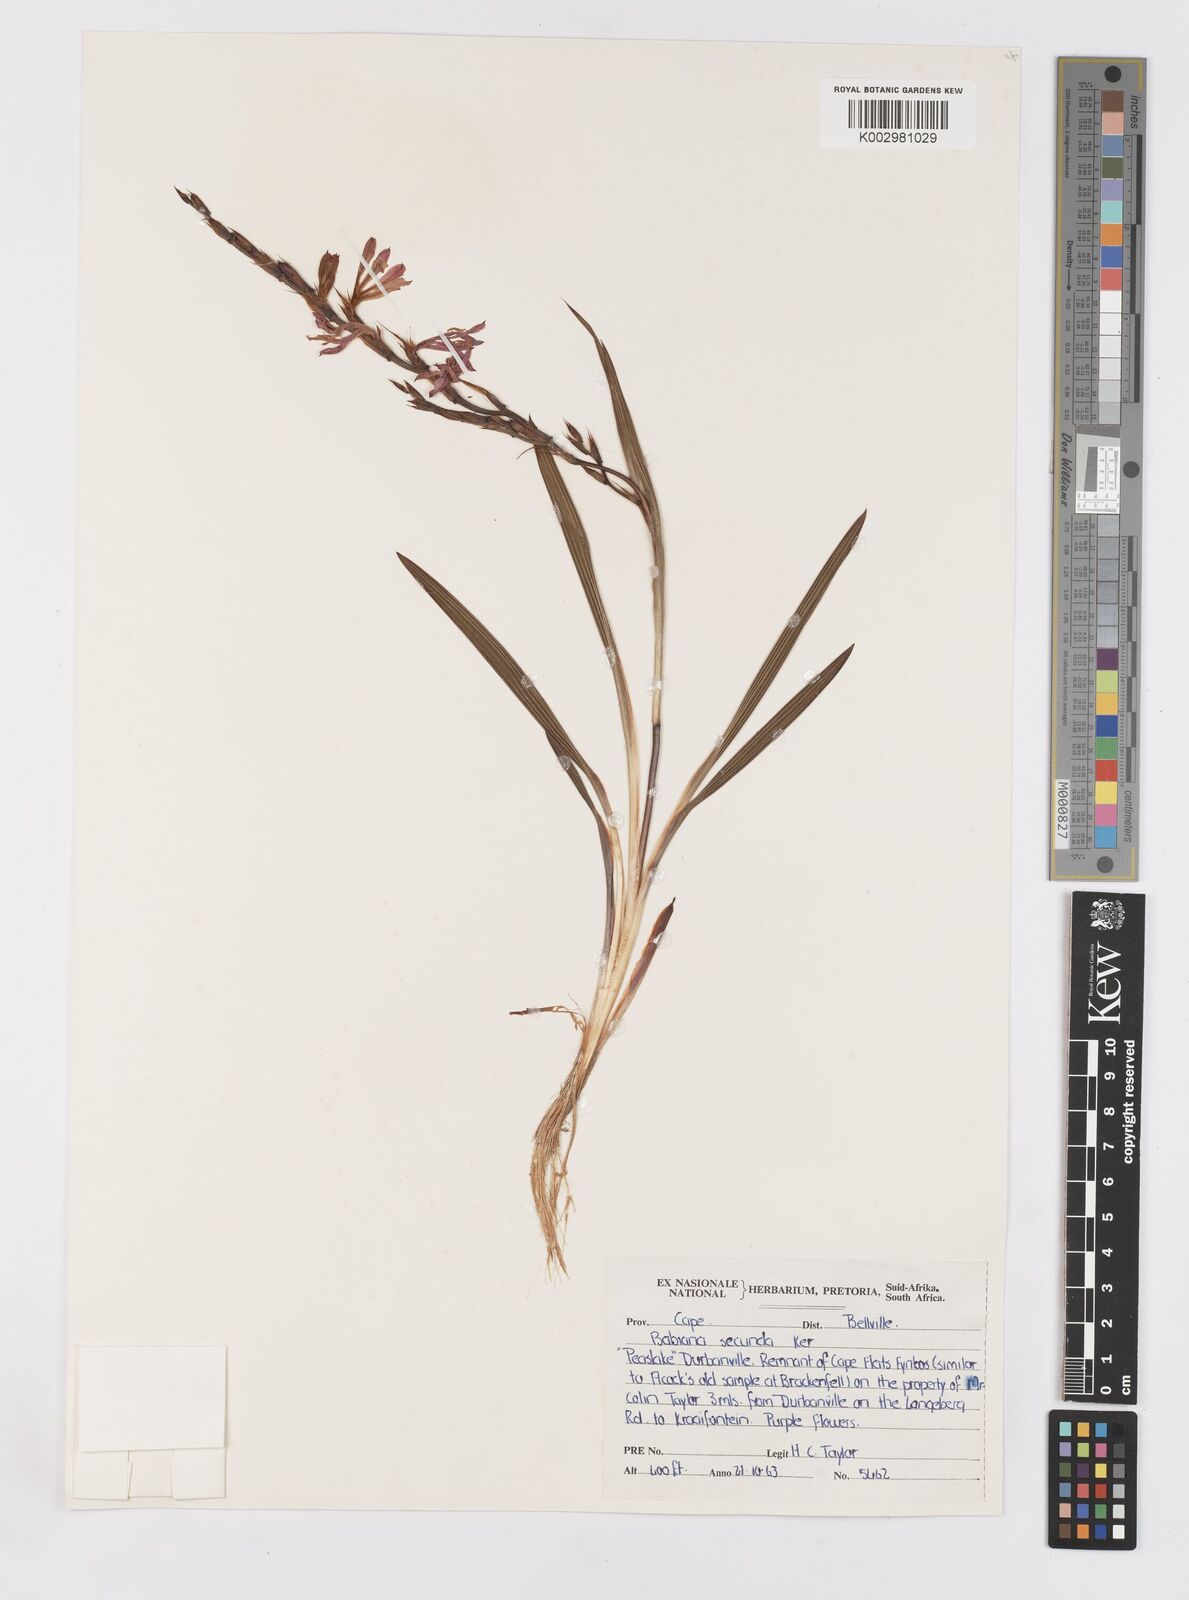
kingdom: Plantae
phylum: Tracheophyta
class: Liliopsida
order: Asparagales
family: Iridaceae
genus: Babiana
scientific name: Babiana secunda
